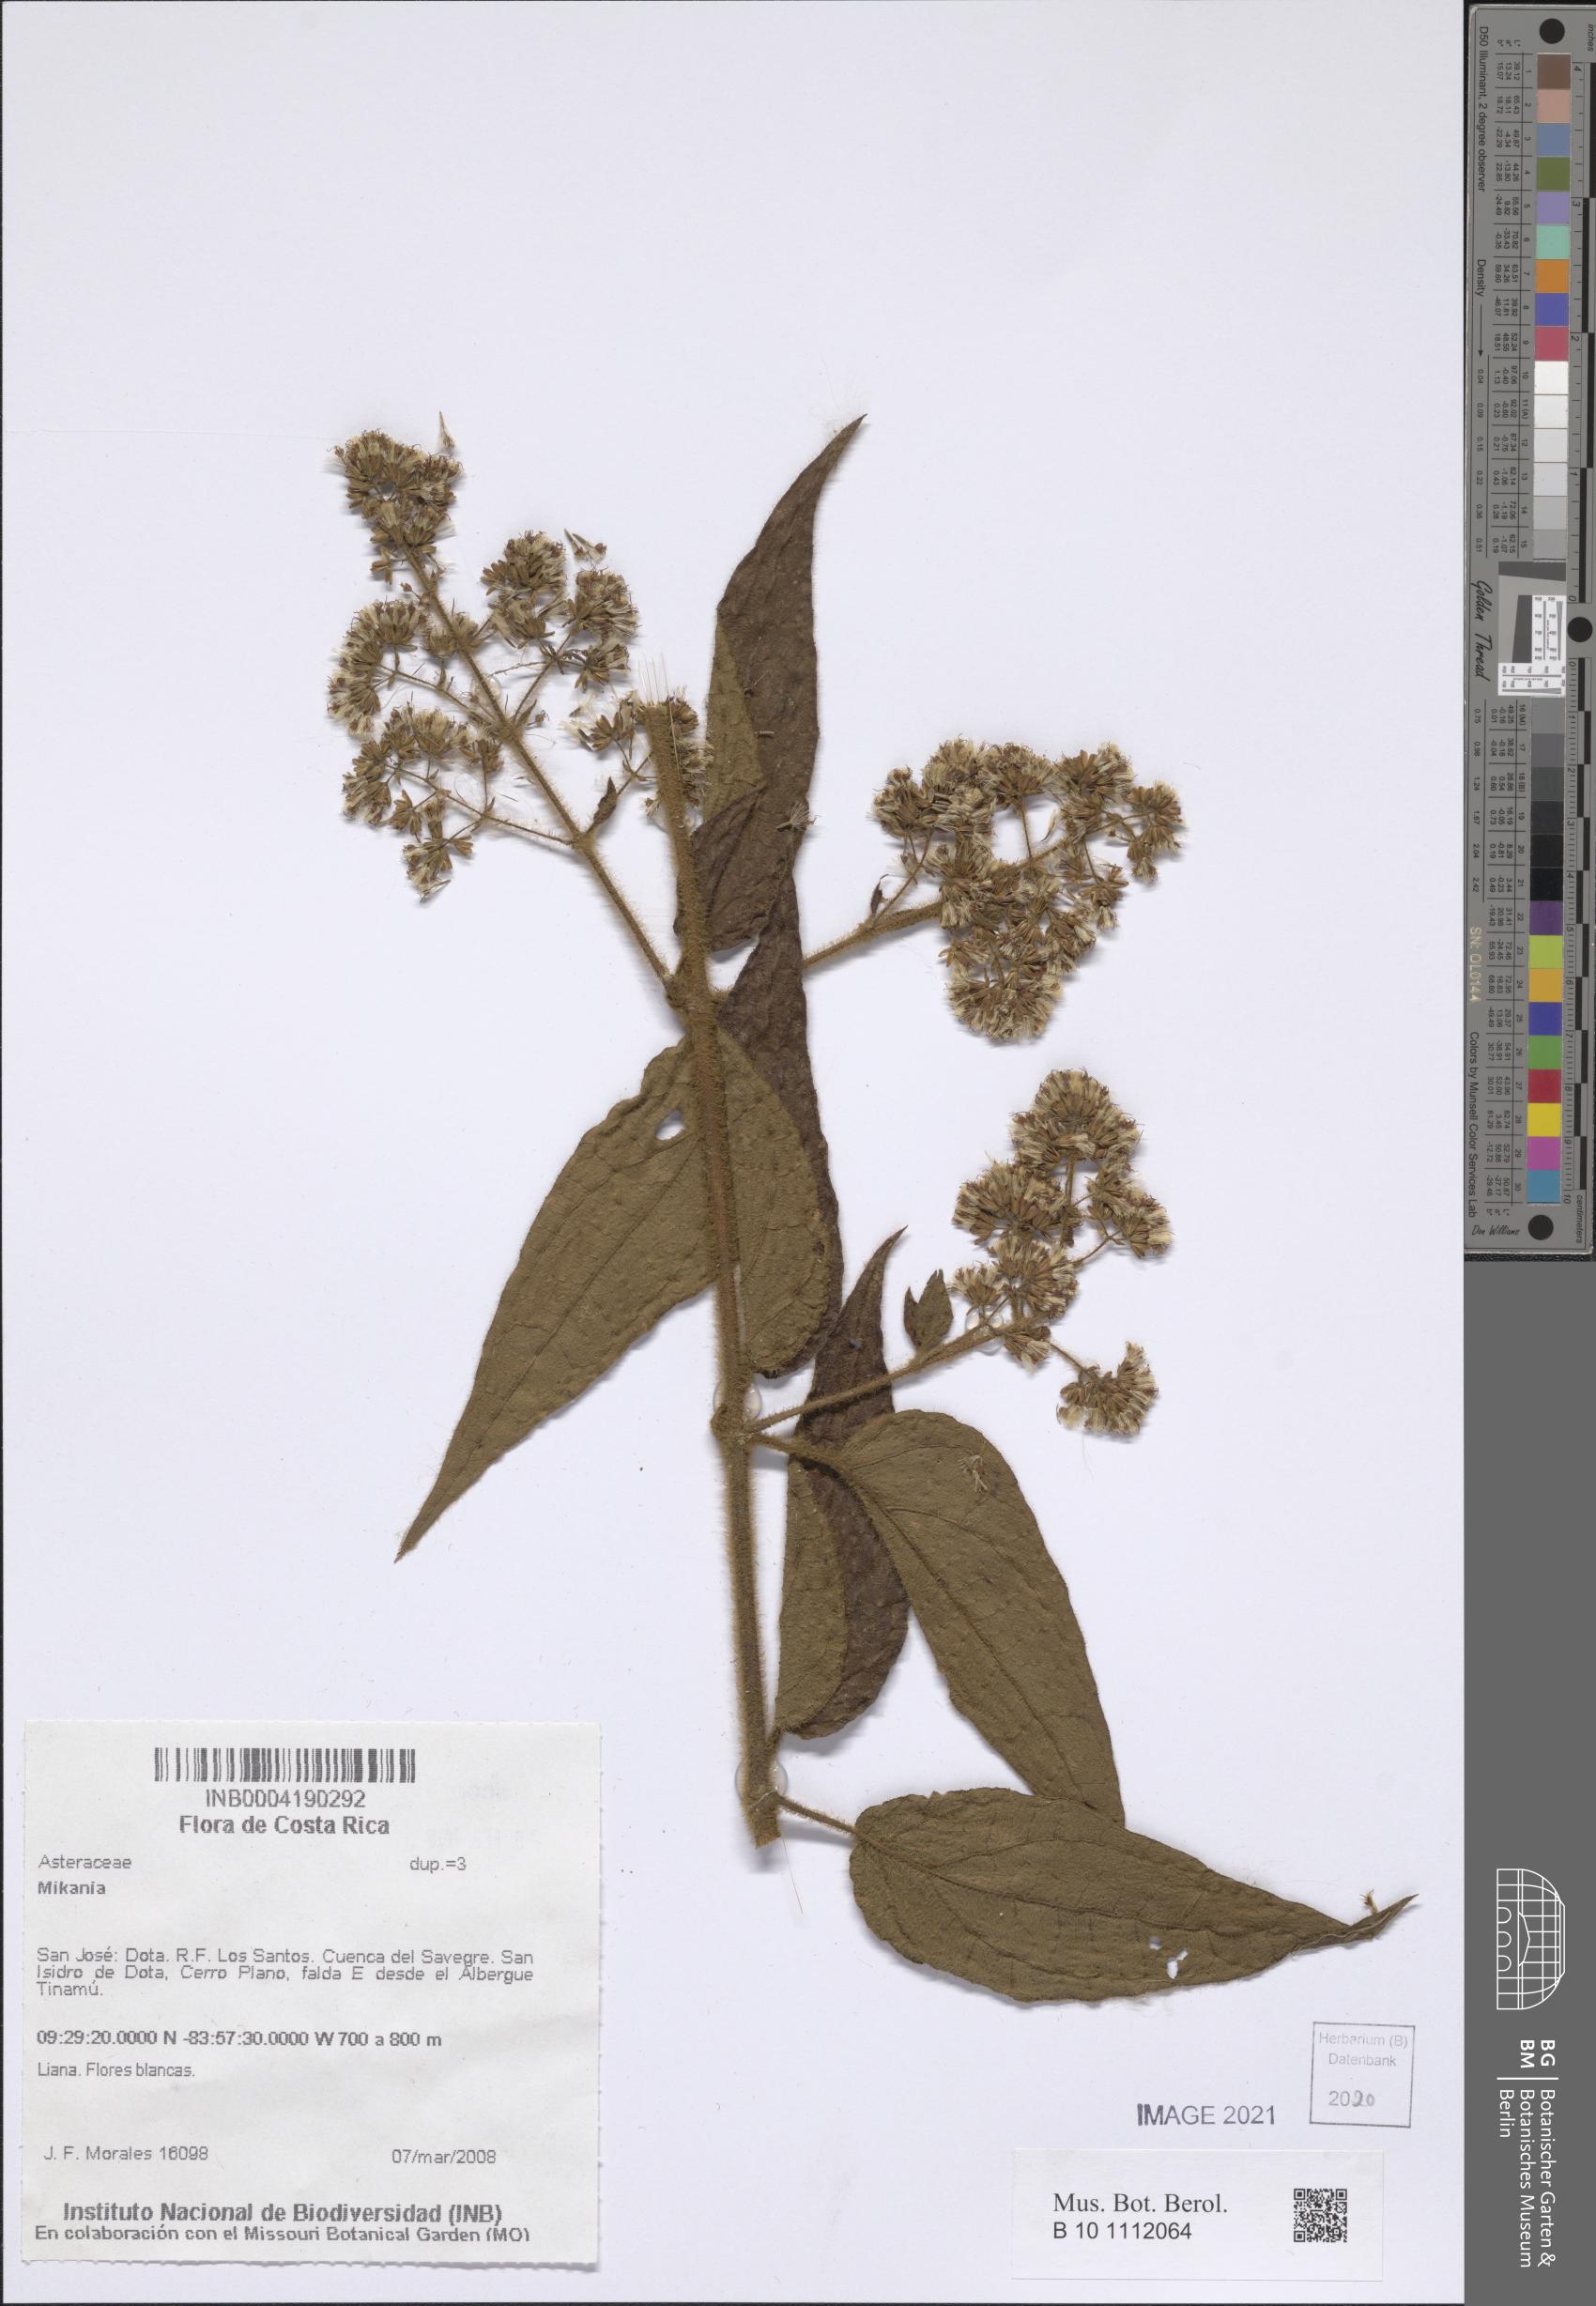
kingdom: Plantae
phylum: Tracheophyta
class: Magnoliopsida
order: Asterales
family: Asteraceae
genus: Mikania
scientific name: Mikania
